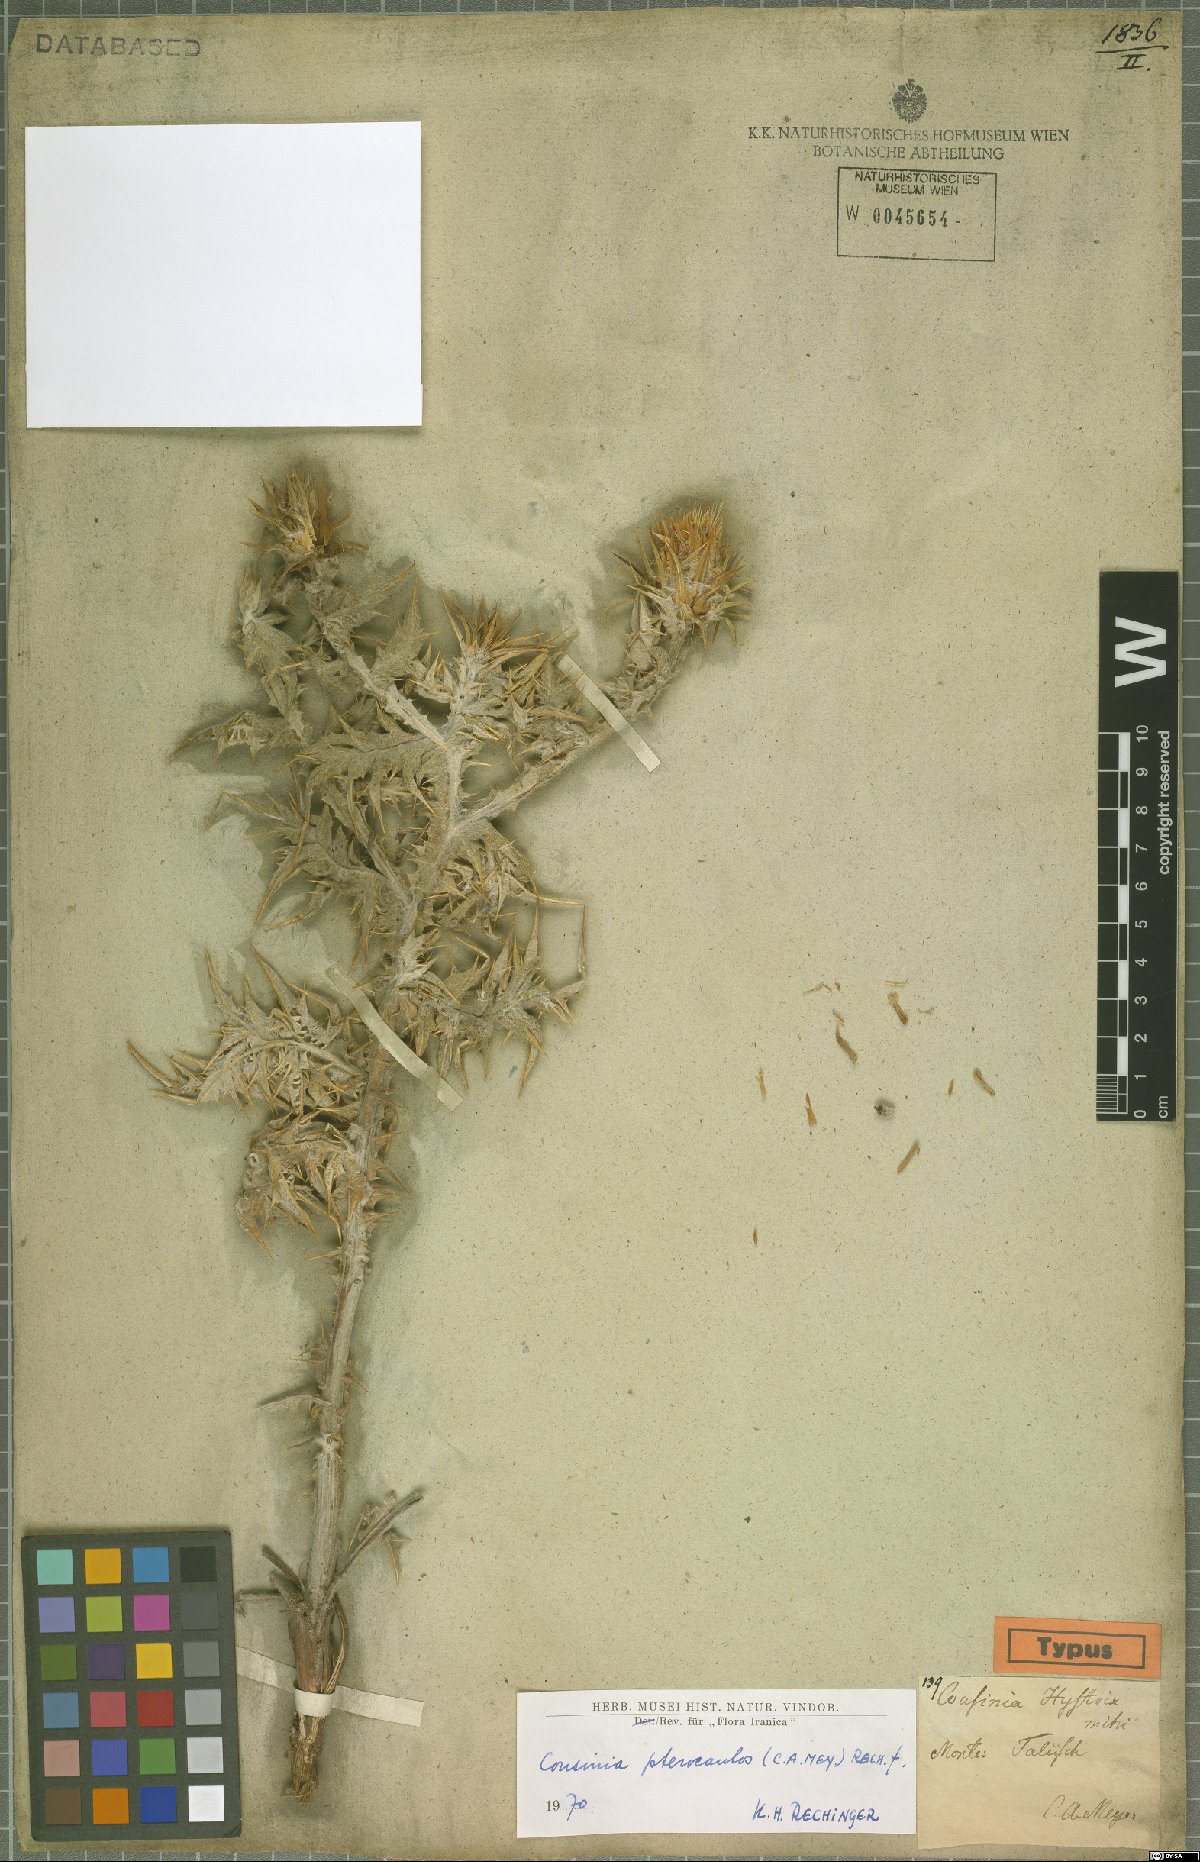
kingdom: Plantae
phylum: Tracheophyta
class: Magnoliopsida
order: Asterales
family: Asteraceae
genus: Cousinia
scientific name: Cousinia pterocaulos
